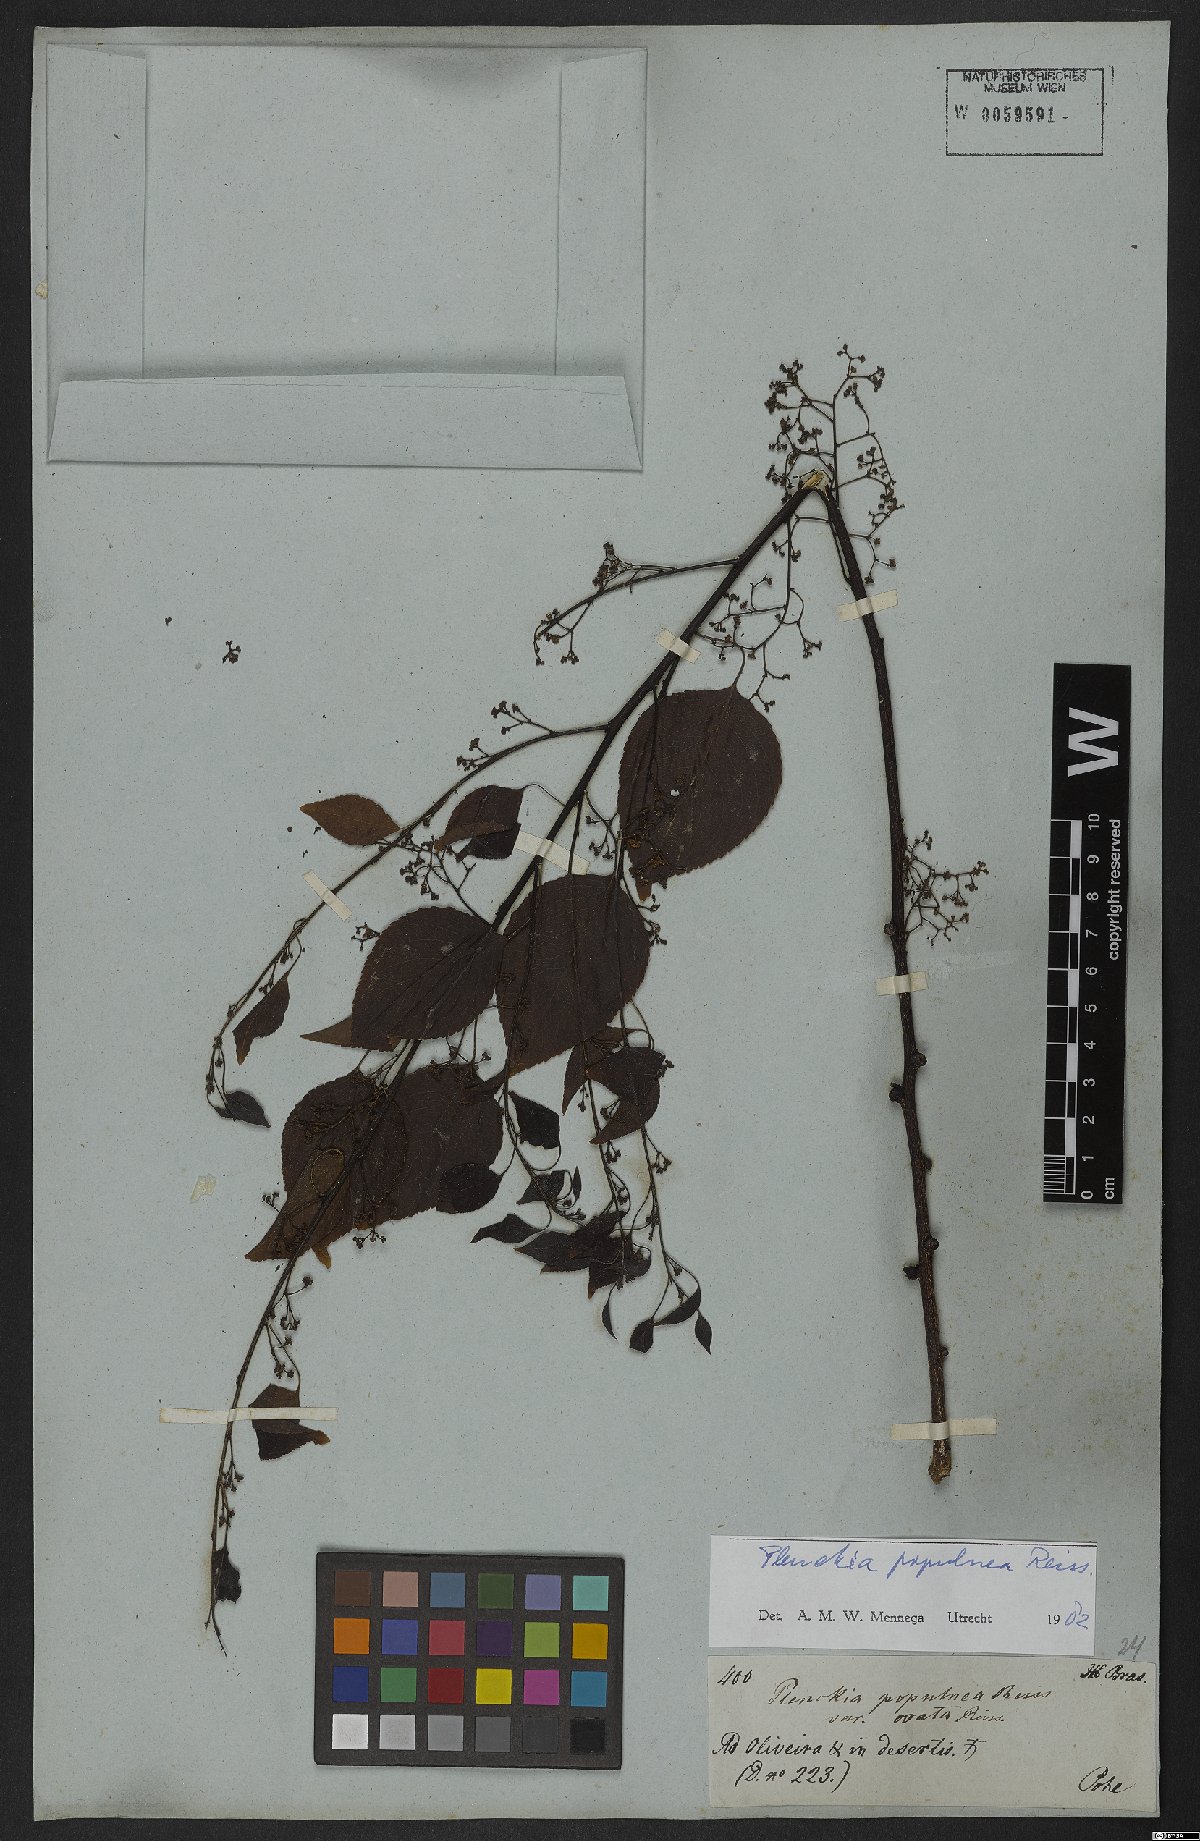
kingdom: Plantae
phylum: Tracheophyta
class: Magnoliopsida
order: Celastrales
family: Celastraceae
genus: Plenckia
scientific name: Plenckia populnea
